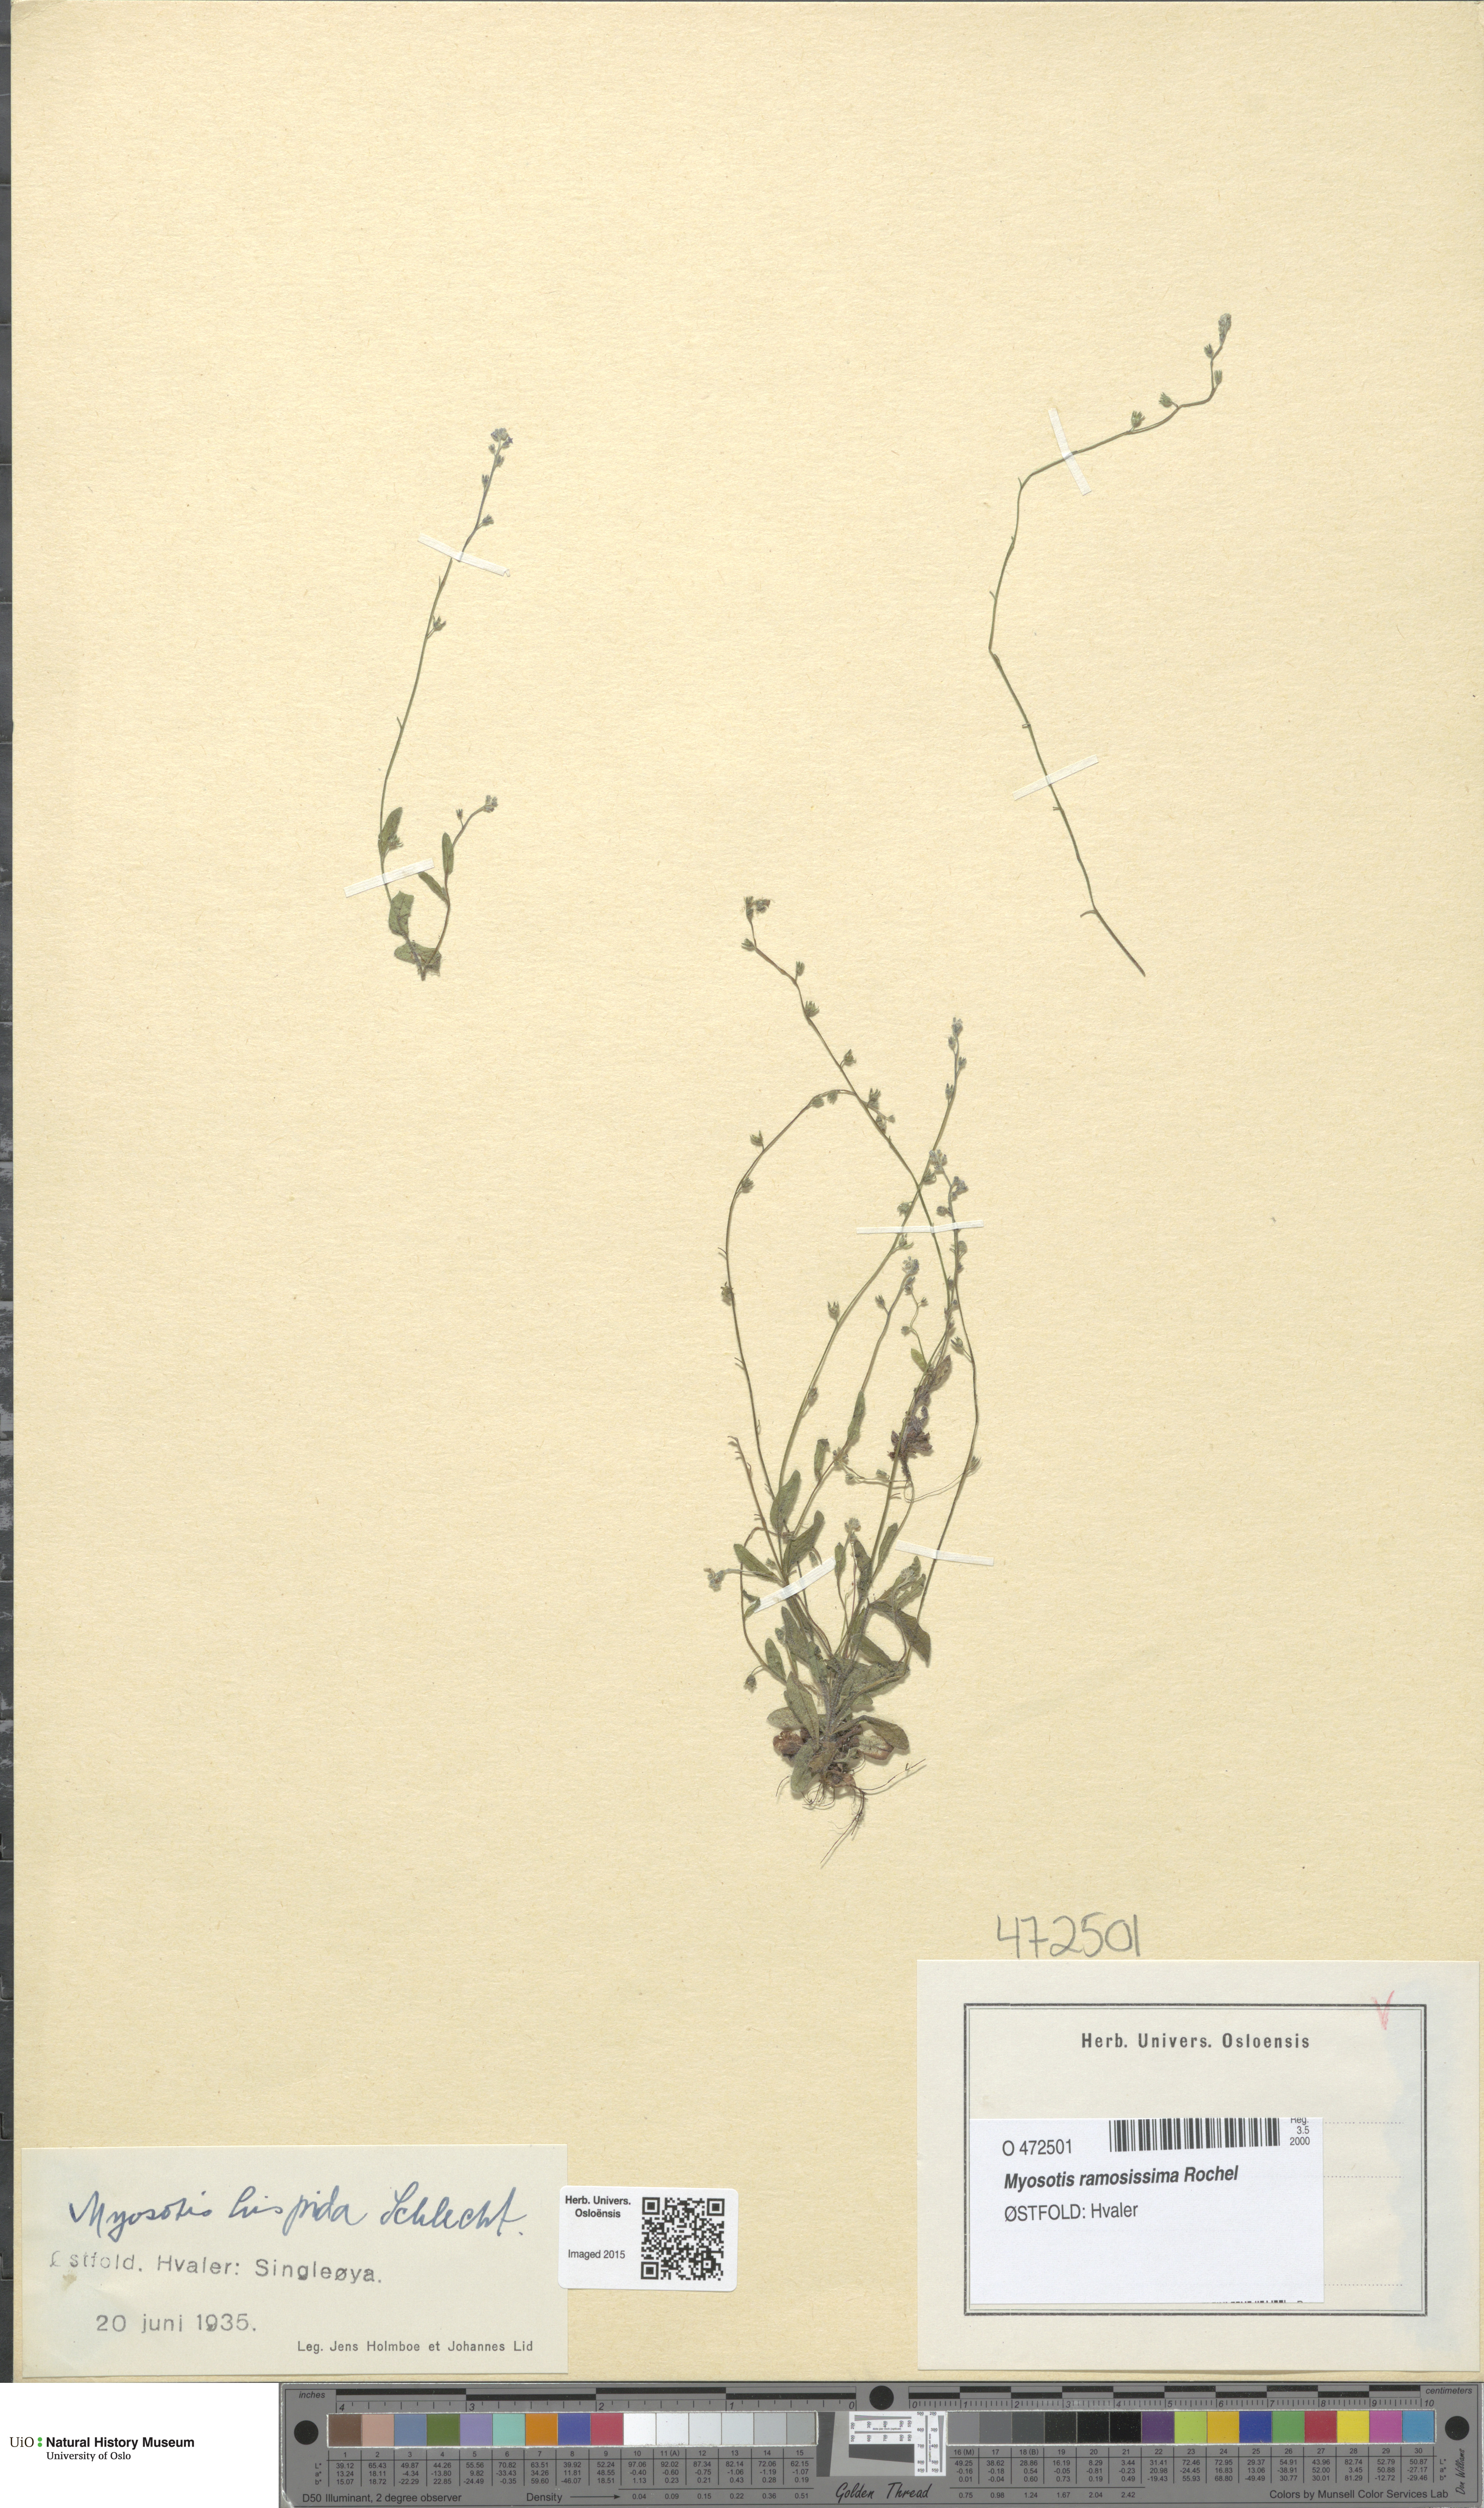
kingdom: Plantae
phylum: Tracheophyta
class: Magnoliopsida
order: Boraginales
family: Boraginaceae
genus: Myosotis
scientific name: Myosotis ramosissima
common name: Early forget-me-not
